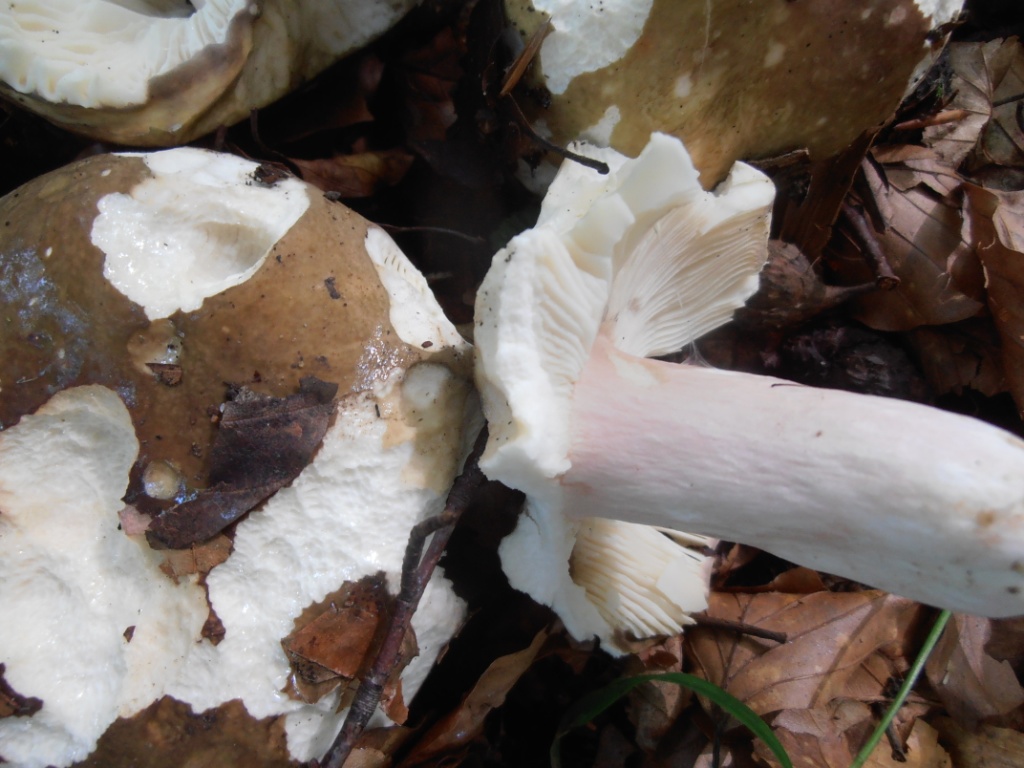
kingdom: Fungi
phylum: Basidiomycota
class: Agaricomycetes
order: Russulales
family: Russulaceae
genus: Russula
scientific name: Russula olivacea
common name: stor skørhat
